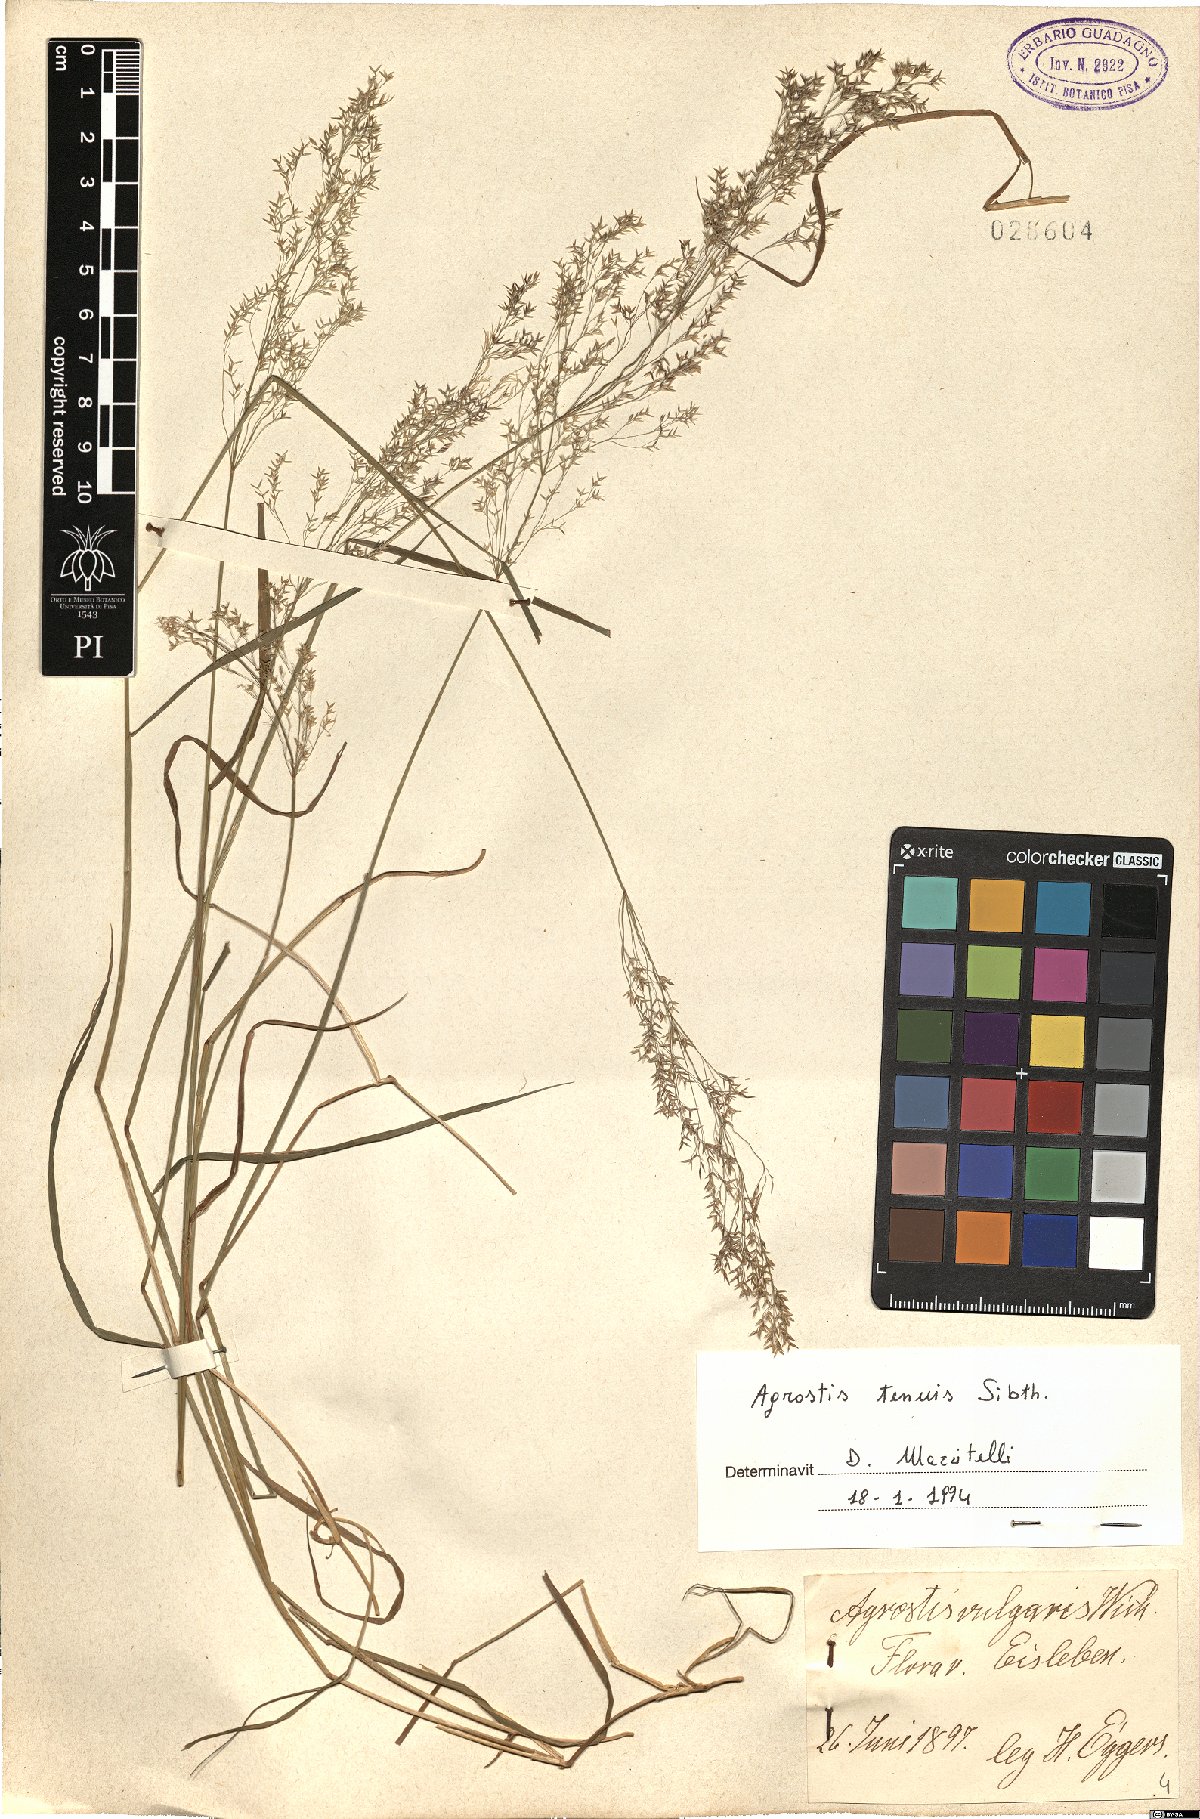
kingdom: Plantae
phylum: Tracheophyta
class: Liliopsida
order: Poales
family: Poaceae
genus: Agrostis
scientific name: Agrostis capillaris
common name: Colonial bentgrass
